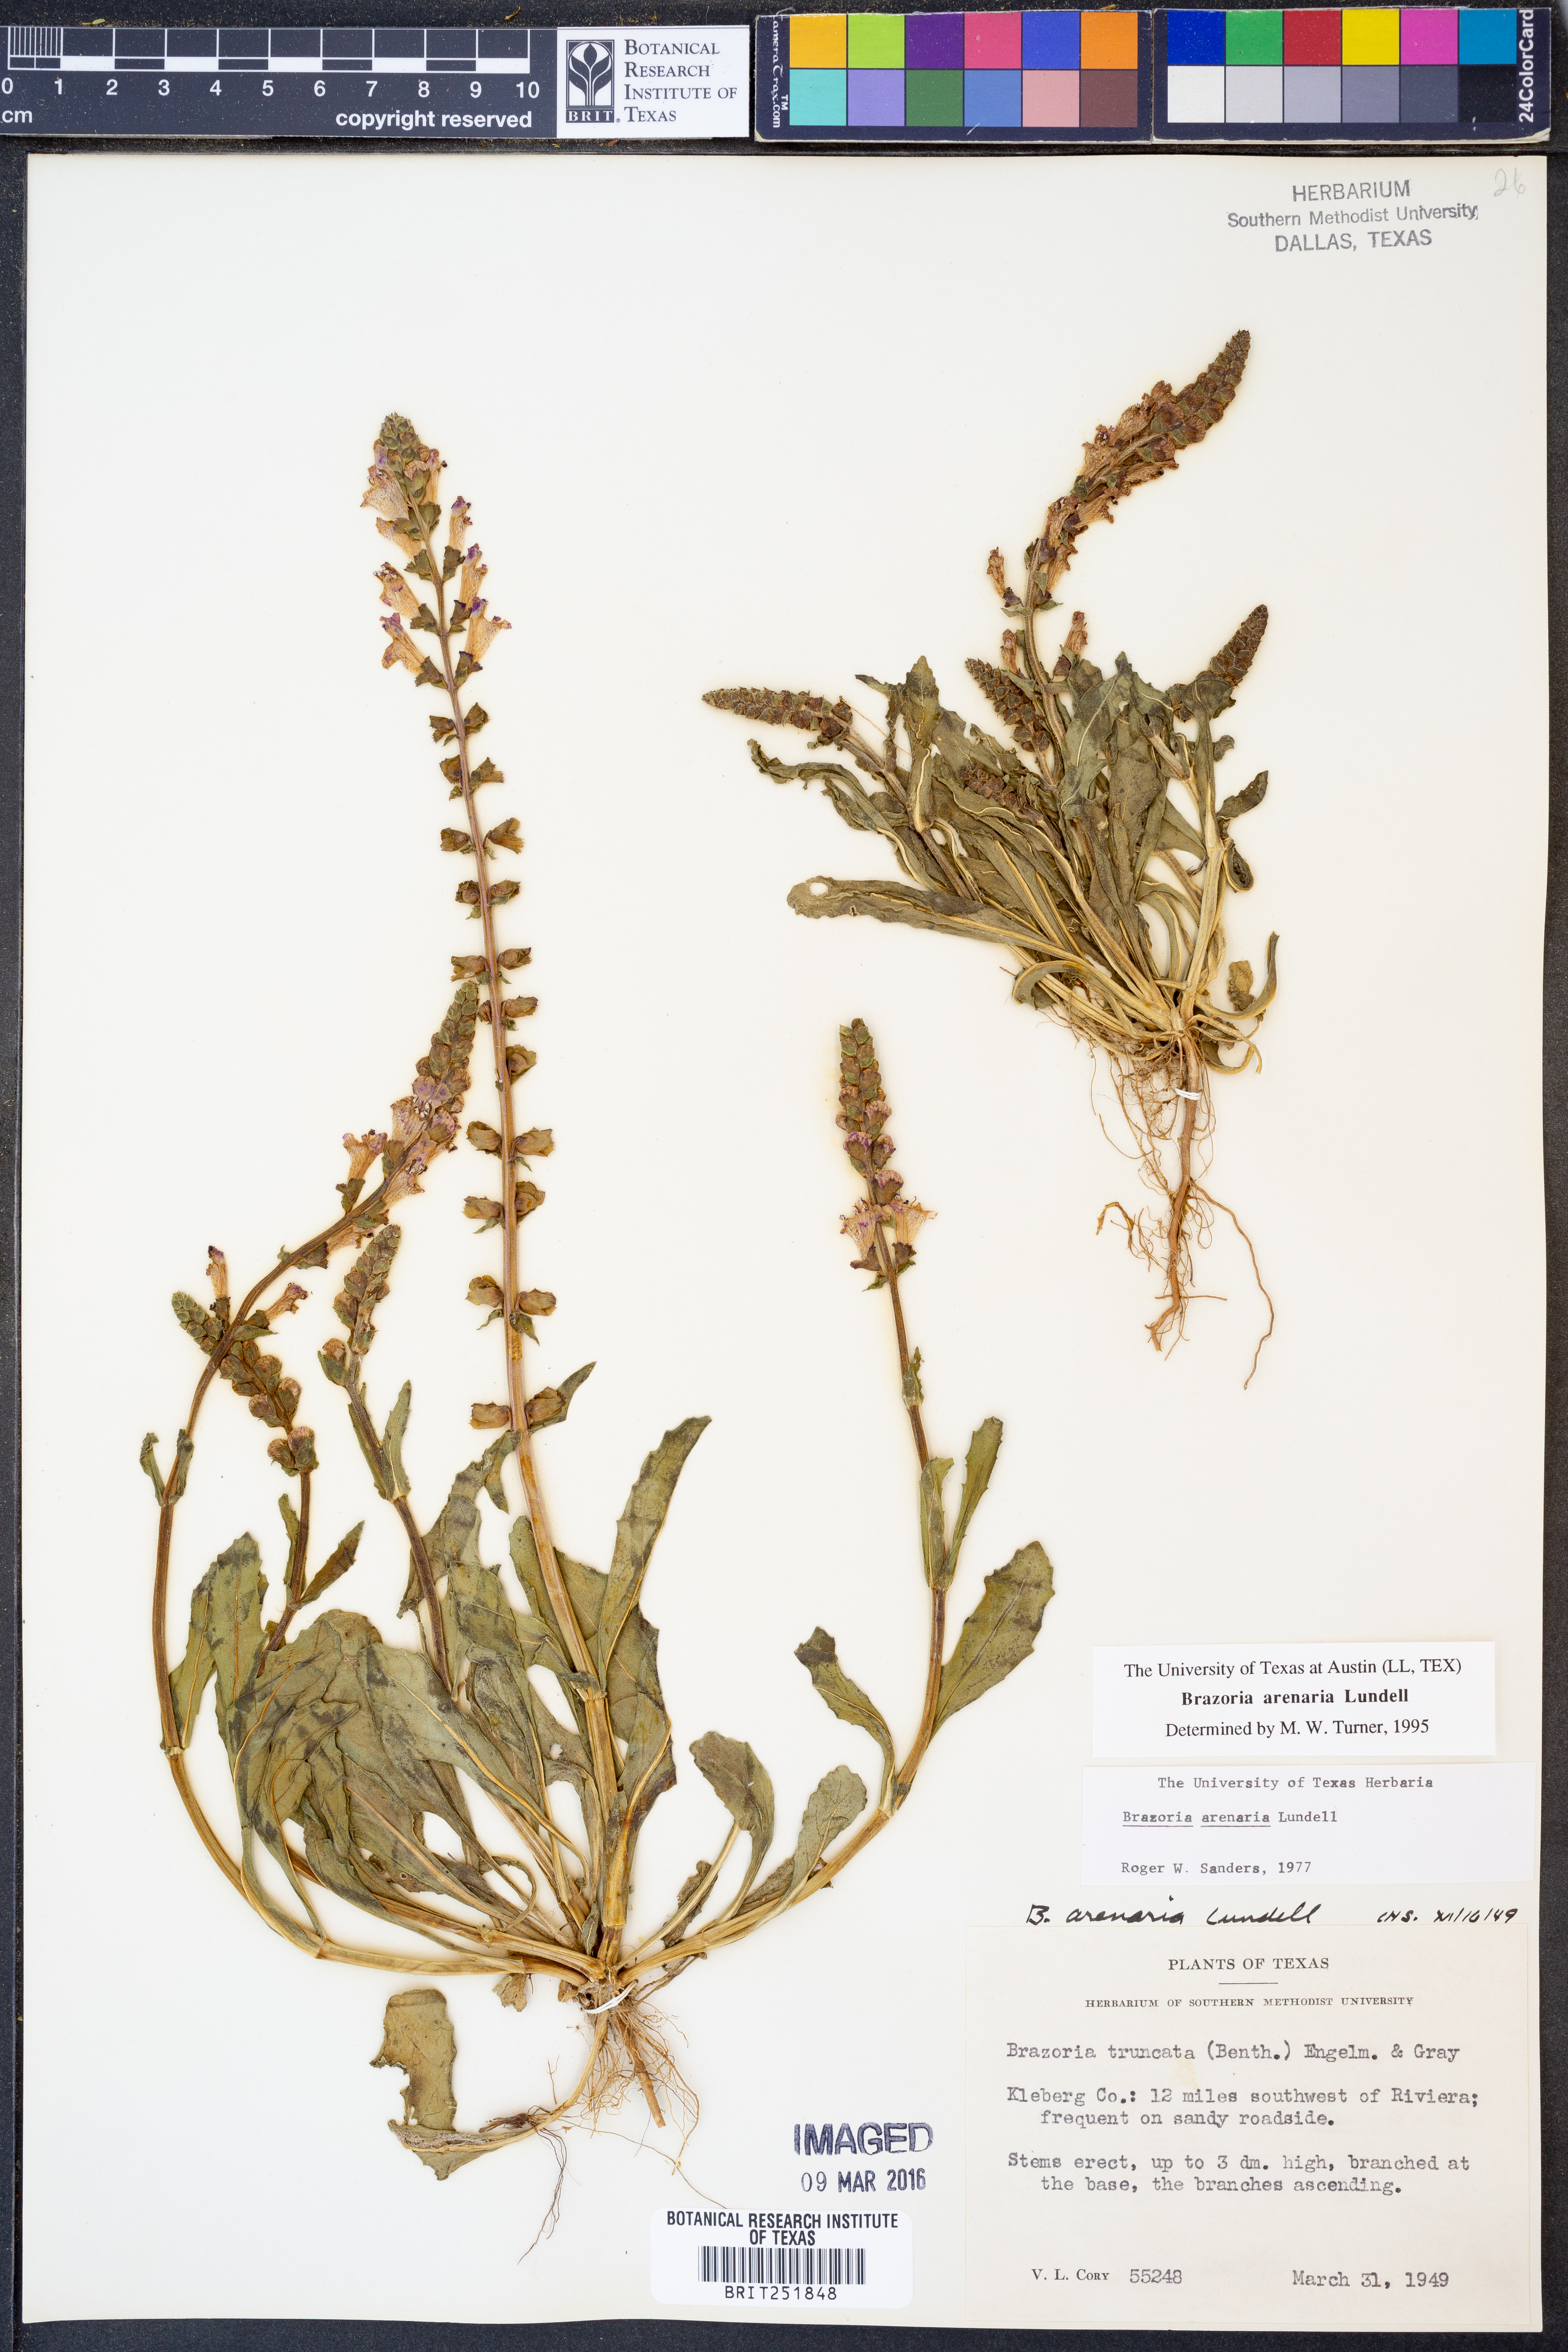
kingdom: Plantae
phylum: Tracheophyta
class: Magnoliopsida
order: Lamiales
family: Lamiaceae
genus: Brazoria
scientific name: Brazoria arenaria
